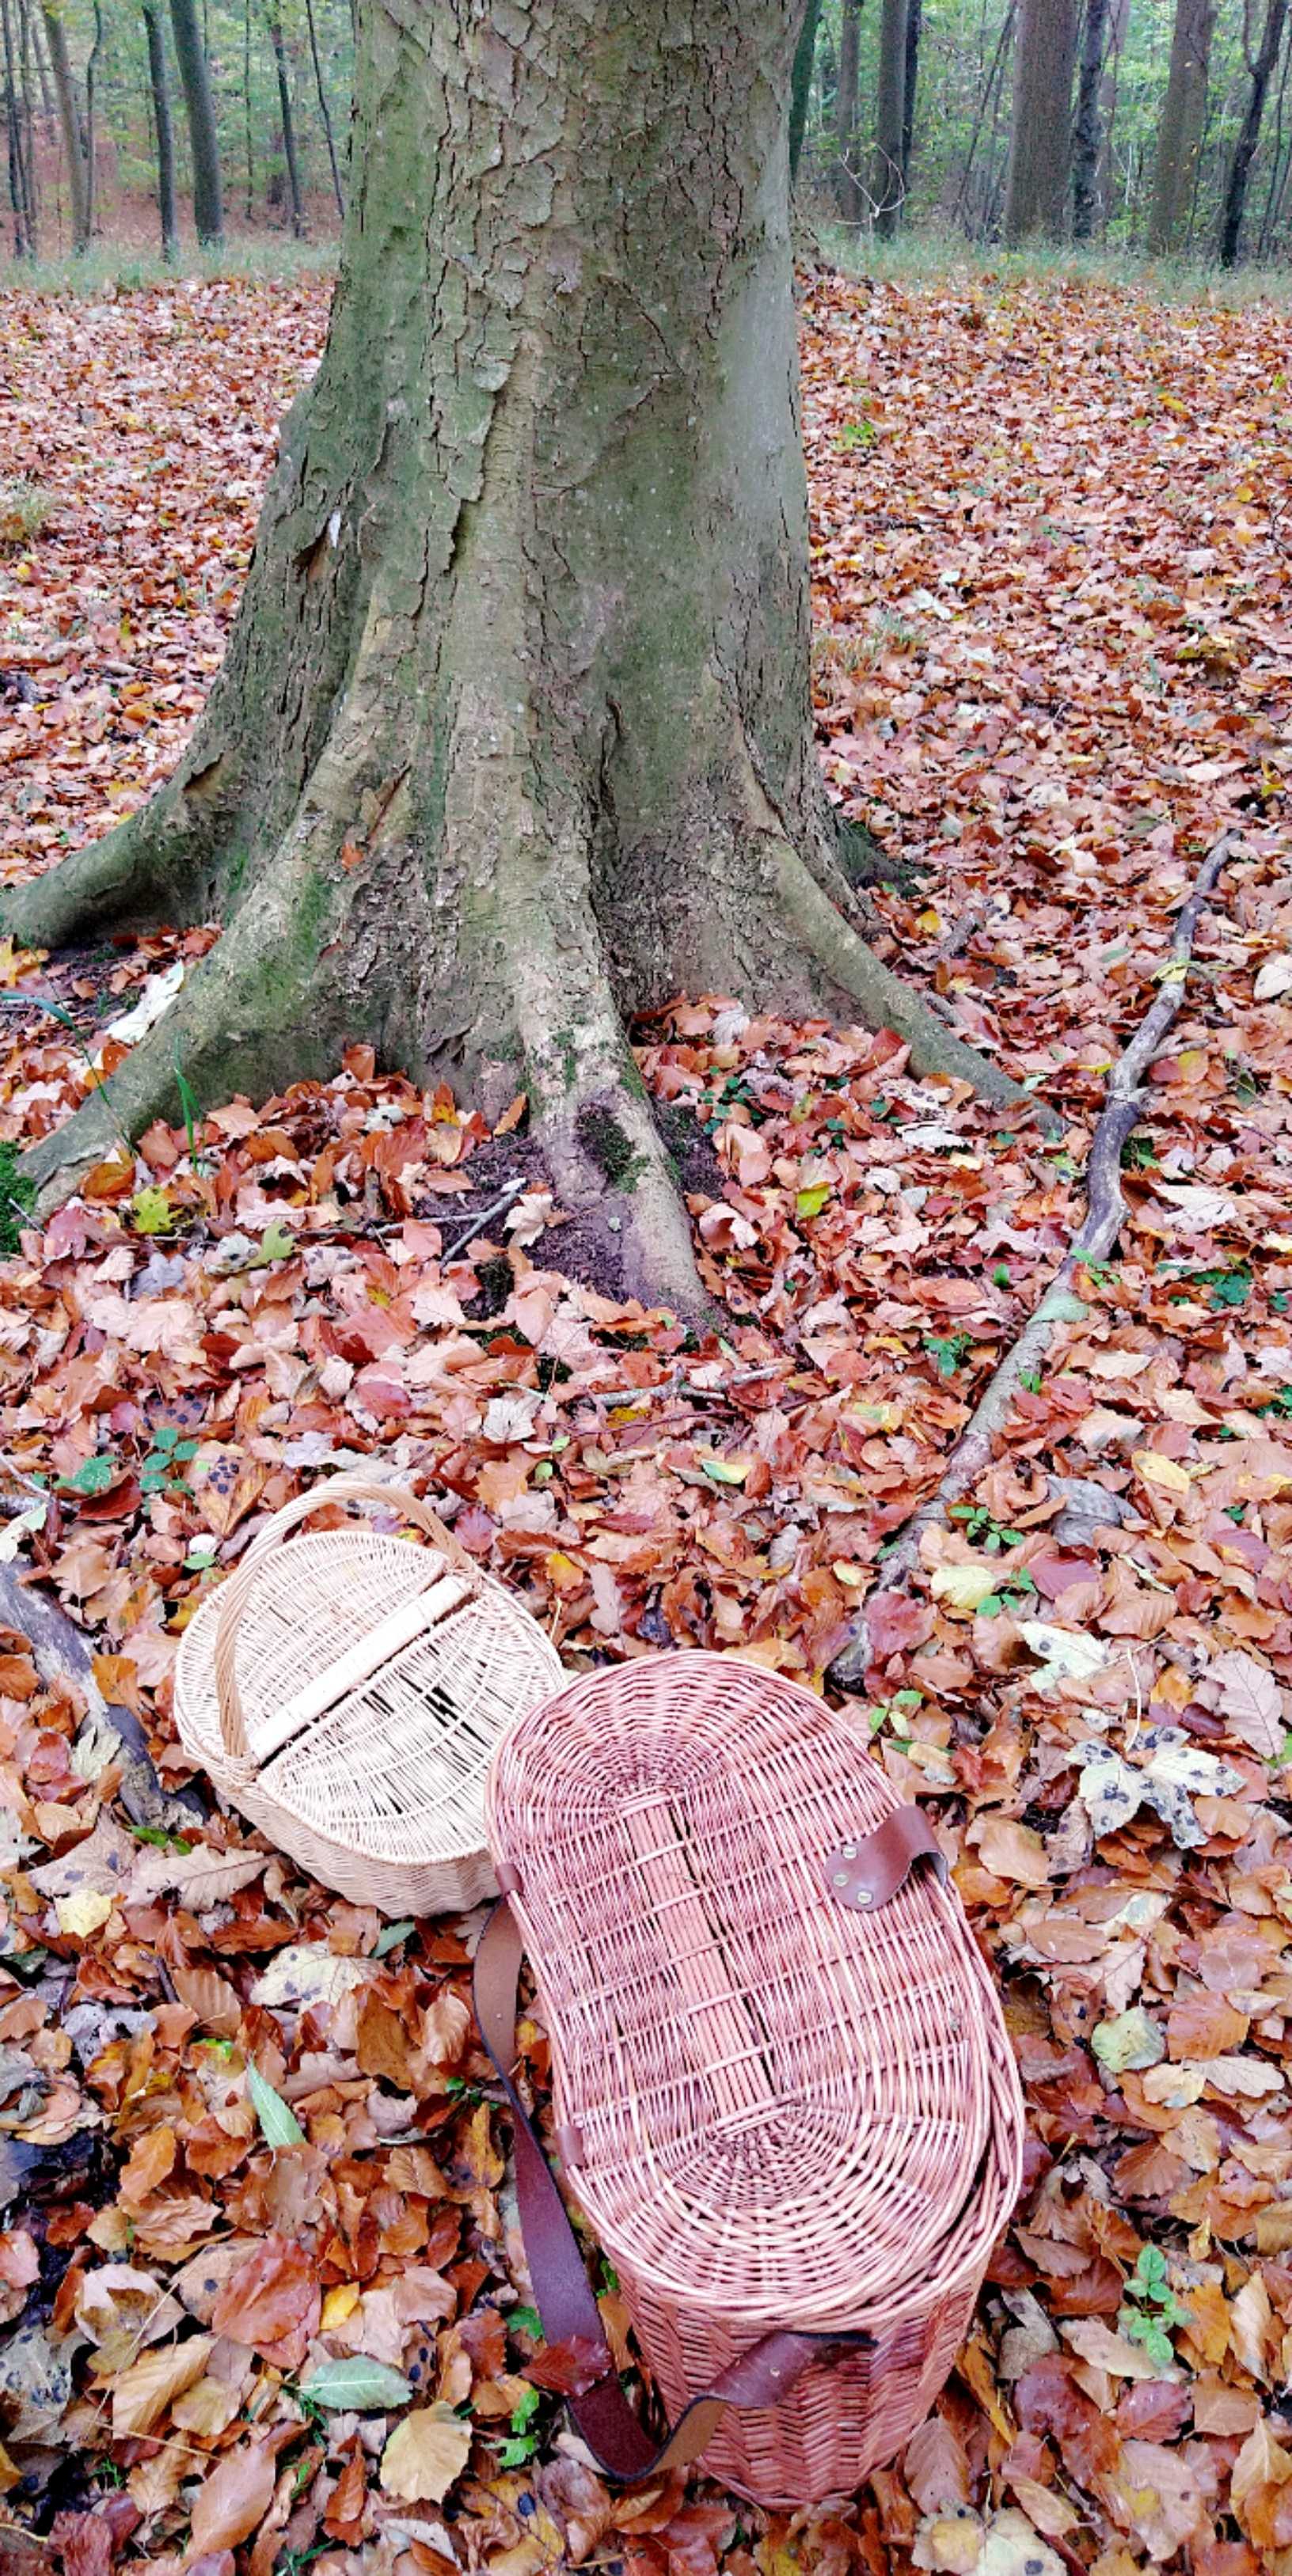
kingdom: Fungi
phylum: Basidiomycota
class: Agaricomycetes
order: Polyporales
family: Grifolaceae
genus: Grifola
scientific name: Grifola frondosa
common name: tueporesvamp
